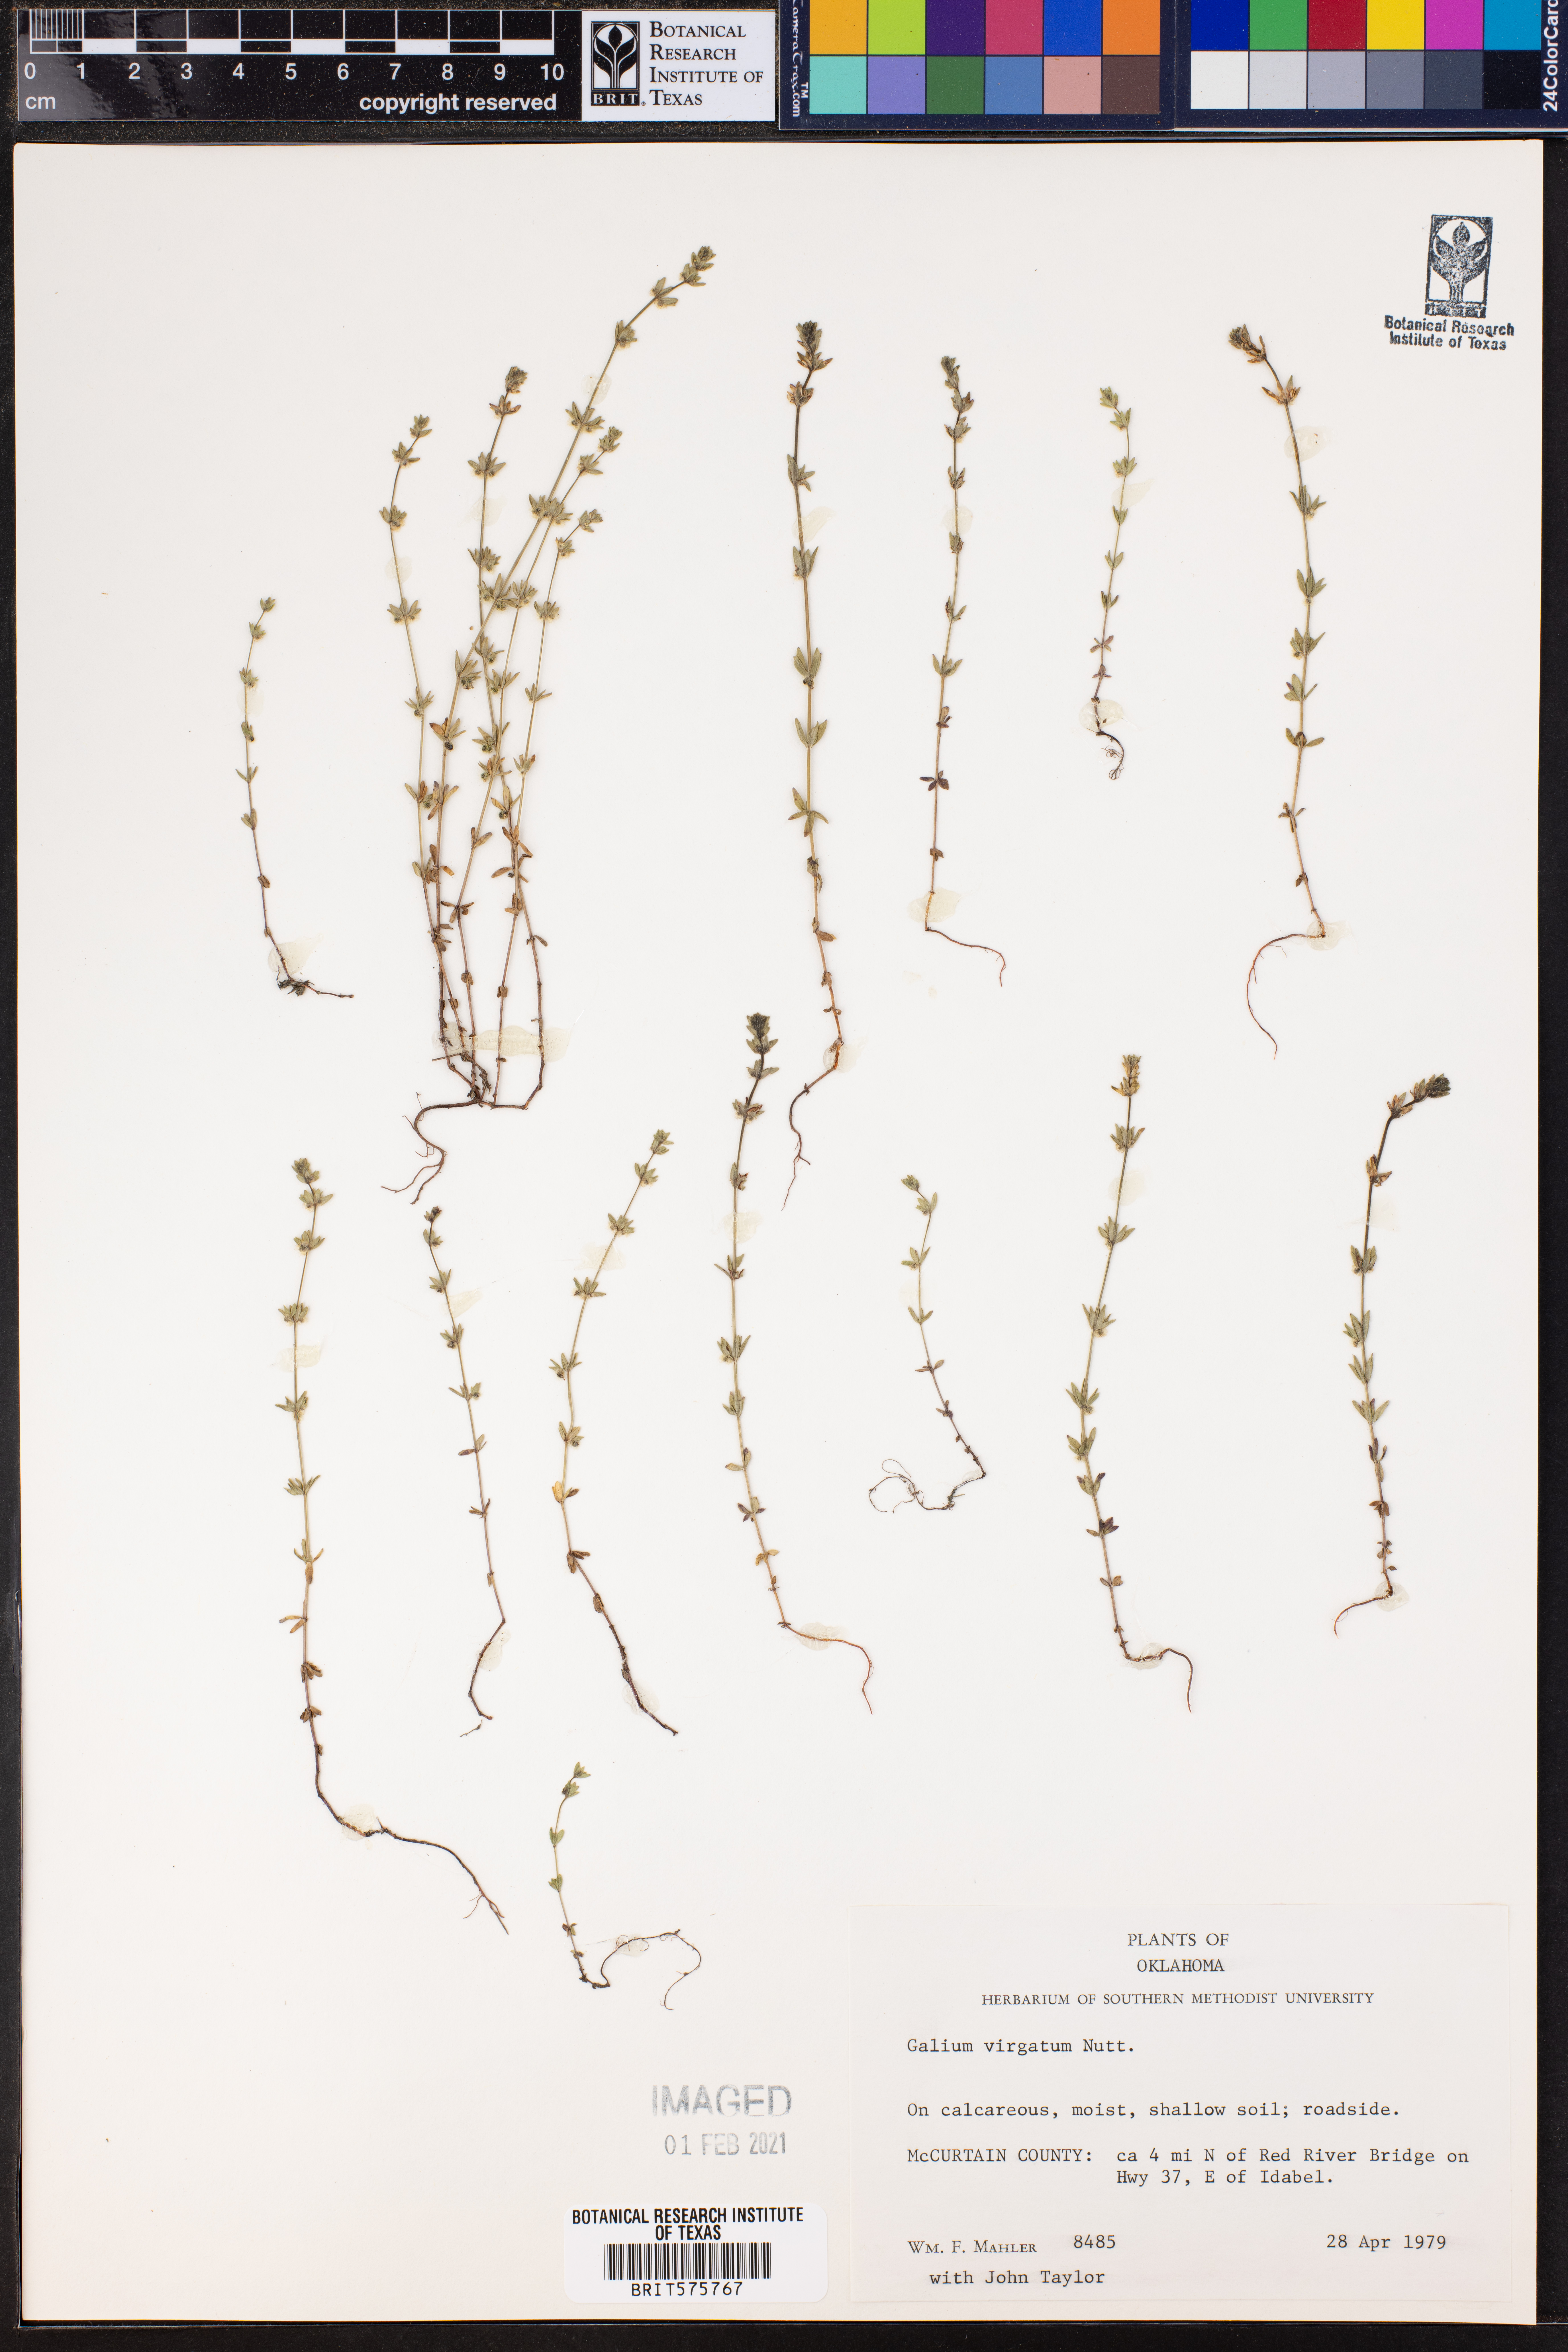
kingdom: Plantae
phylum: Tracheophyta
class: Magnoliopsida
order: Gentianales
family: Rubiaceae
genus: Galium
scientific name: Galium virgatum
